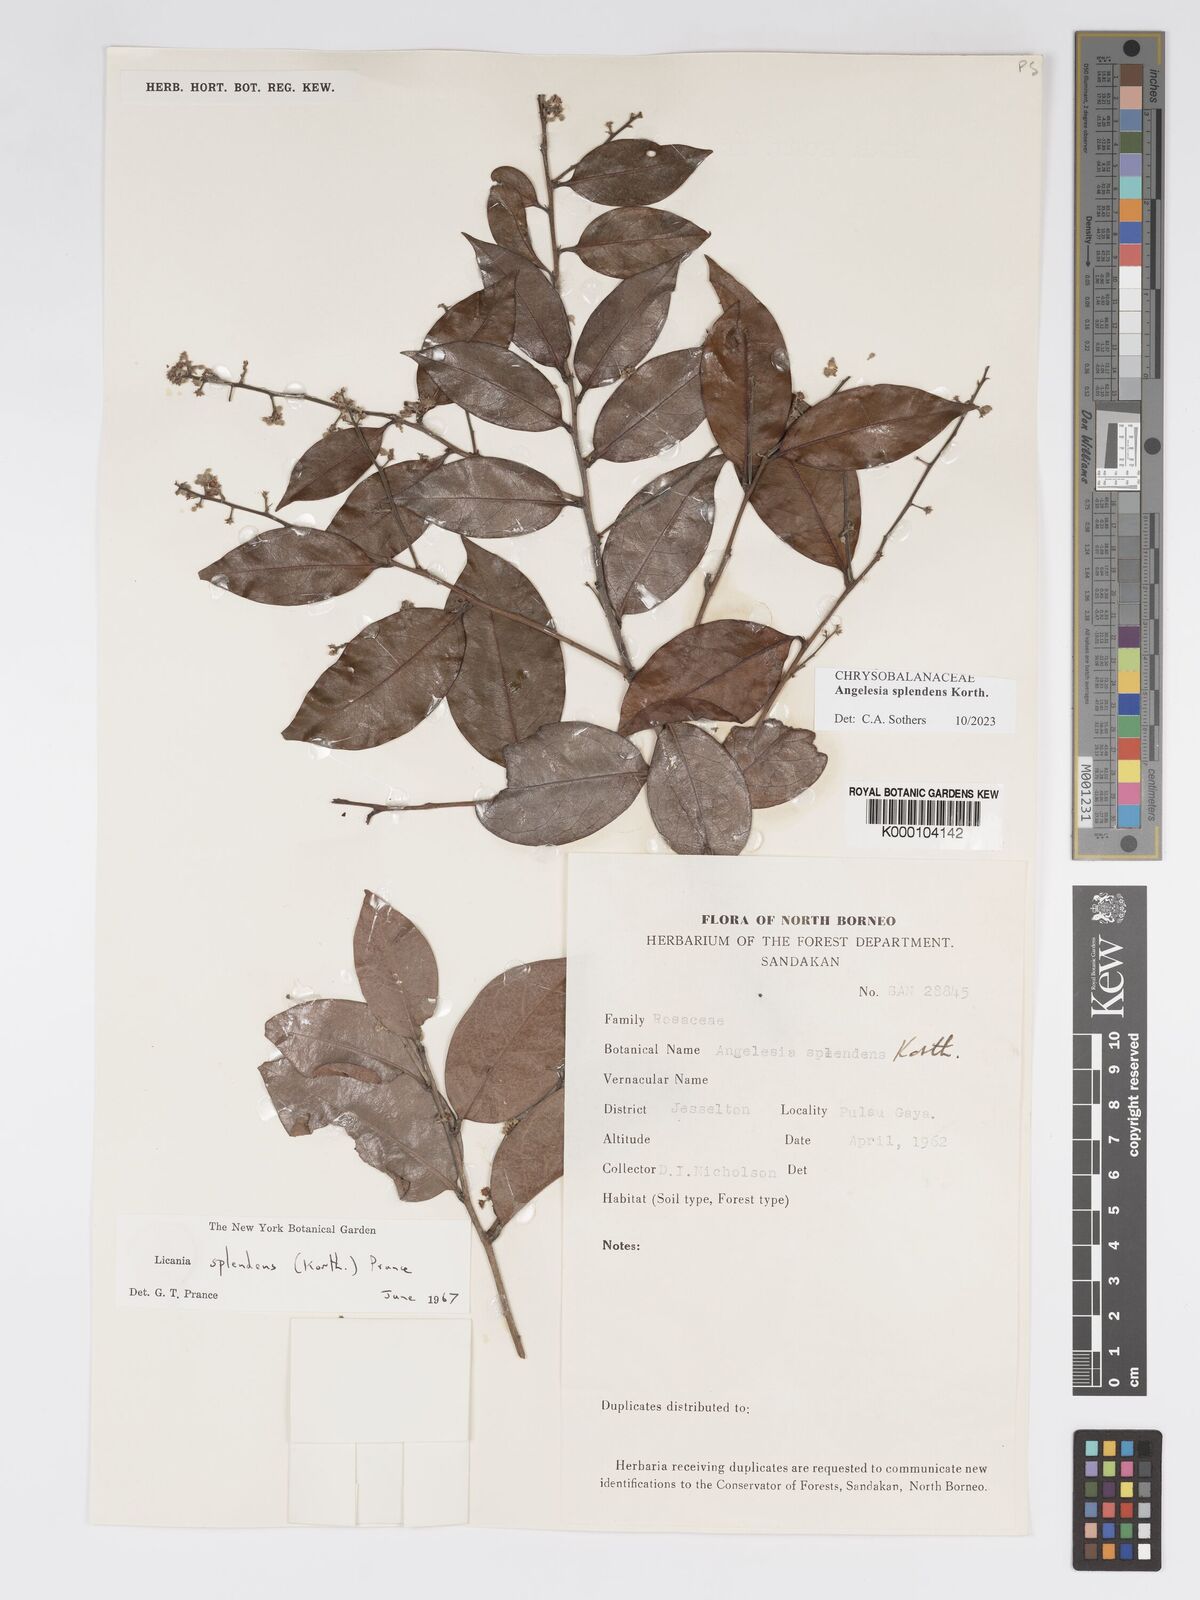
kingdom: Plantae
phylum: Tracheophyta
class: Magnoliopsida
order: Malpighiales
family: Chrysobalanaceae
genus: Angelesia
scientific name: Angelesia splendens
